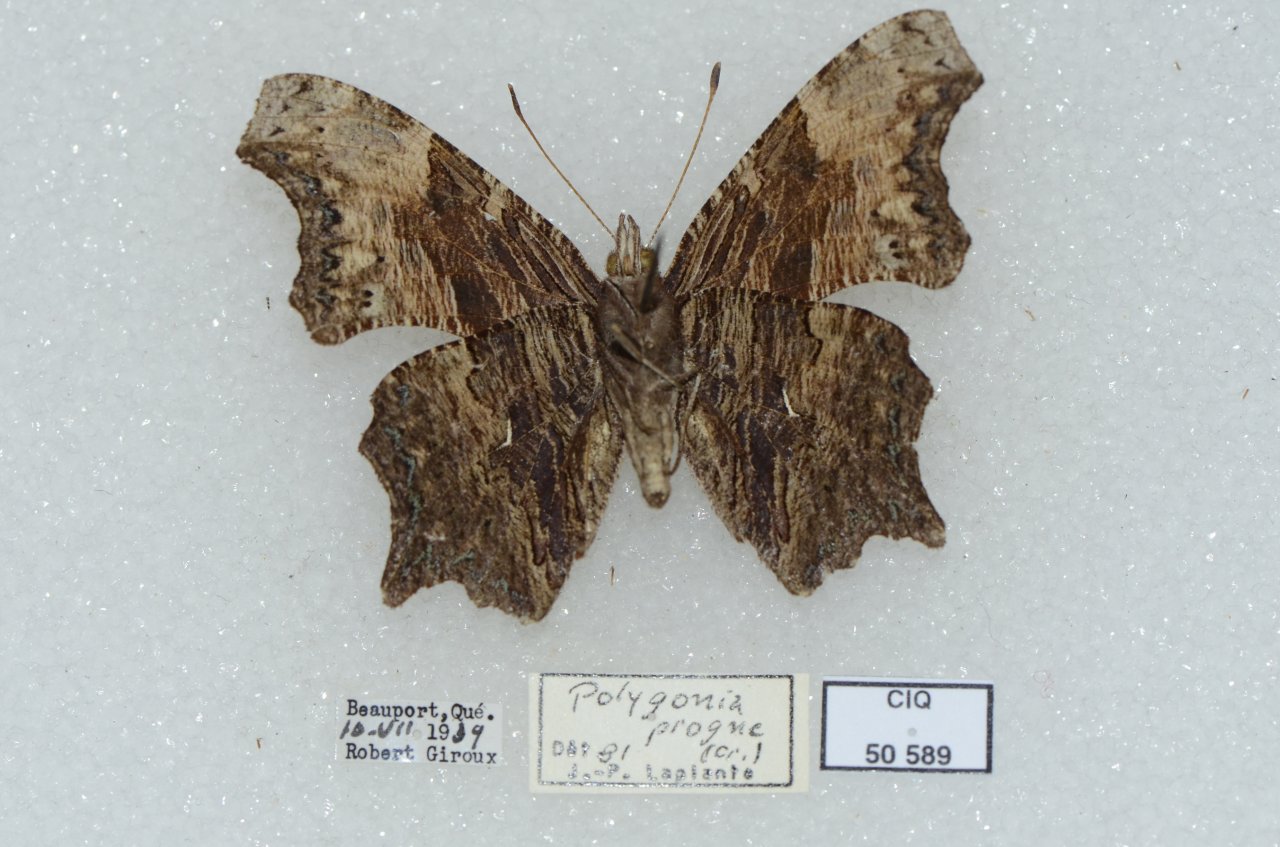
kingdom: Animalia
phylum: Arthropoda
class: Insecta
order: Lepidoptera
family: Nymphalidae
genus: Polygonia
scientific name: Polygonia progne
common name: Gray Comma
